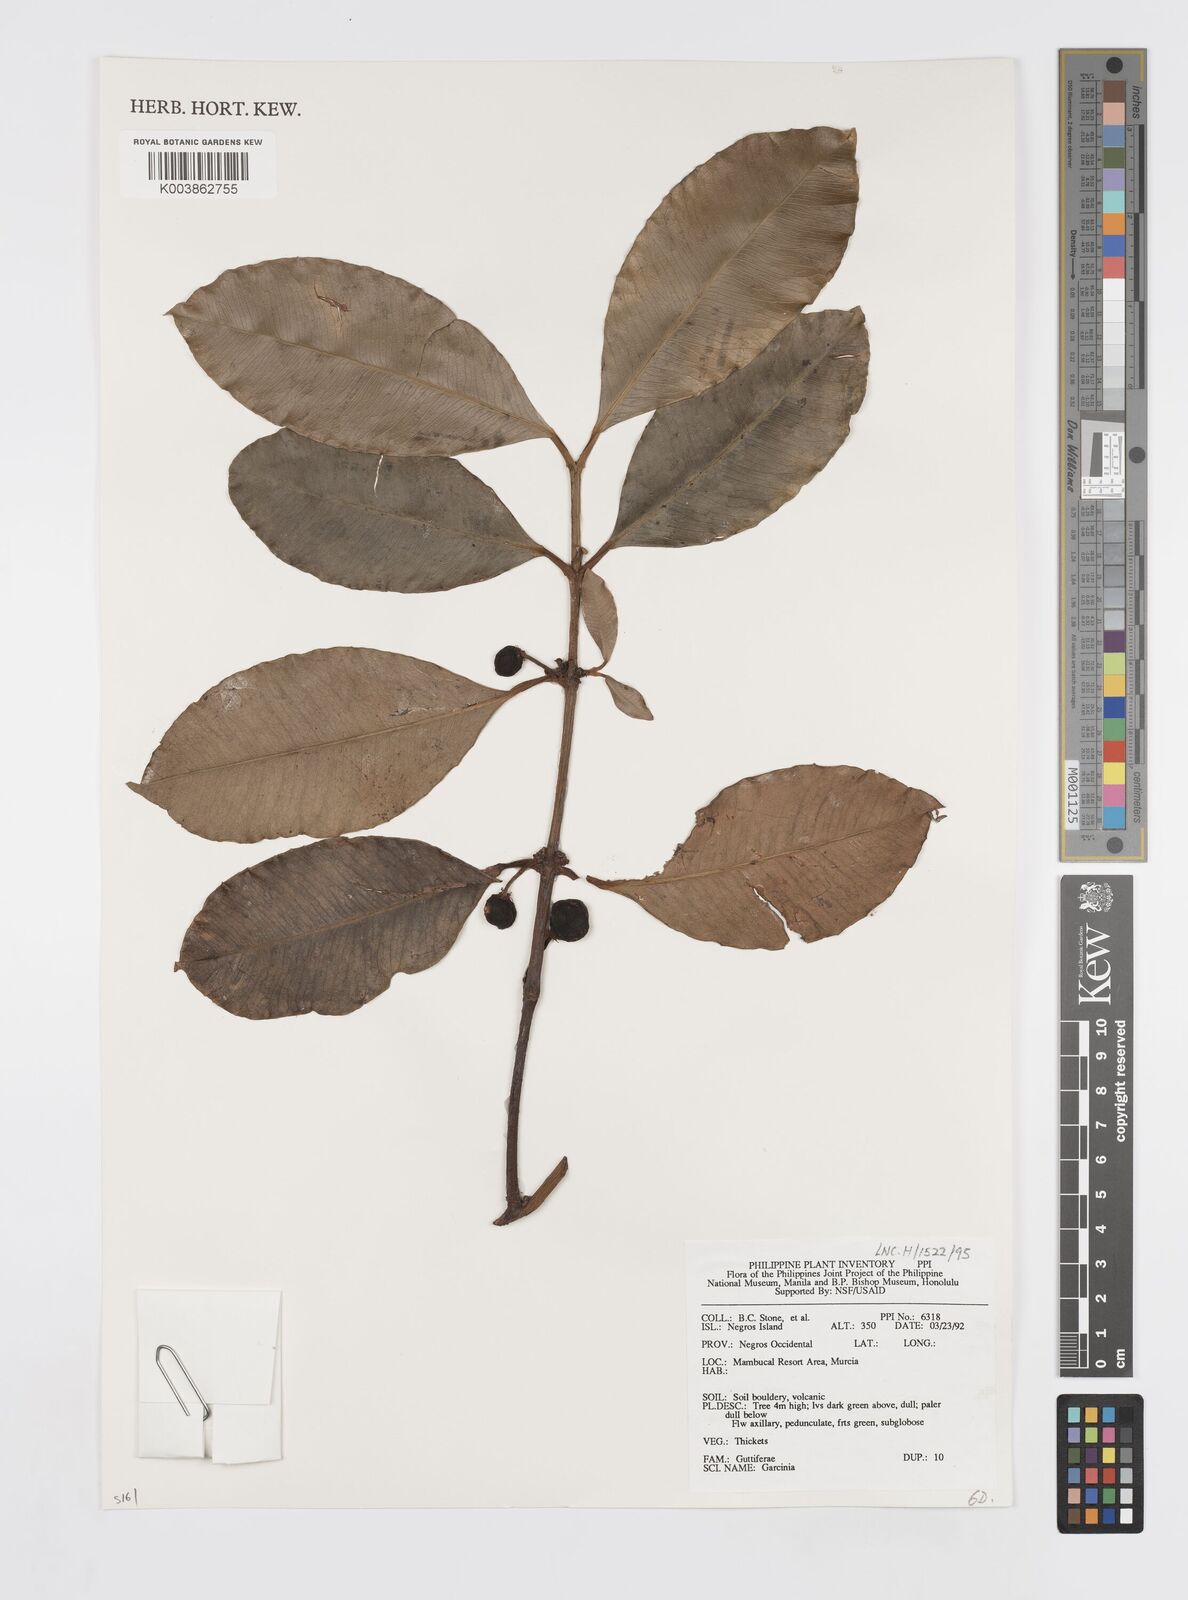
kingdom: Plantae
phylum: Tracheophyta
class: Magnoliopsida
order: Malpighiales
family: Clusiaceae
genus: Garcinia
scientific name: Garcinia
